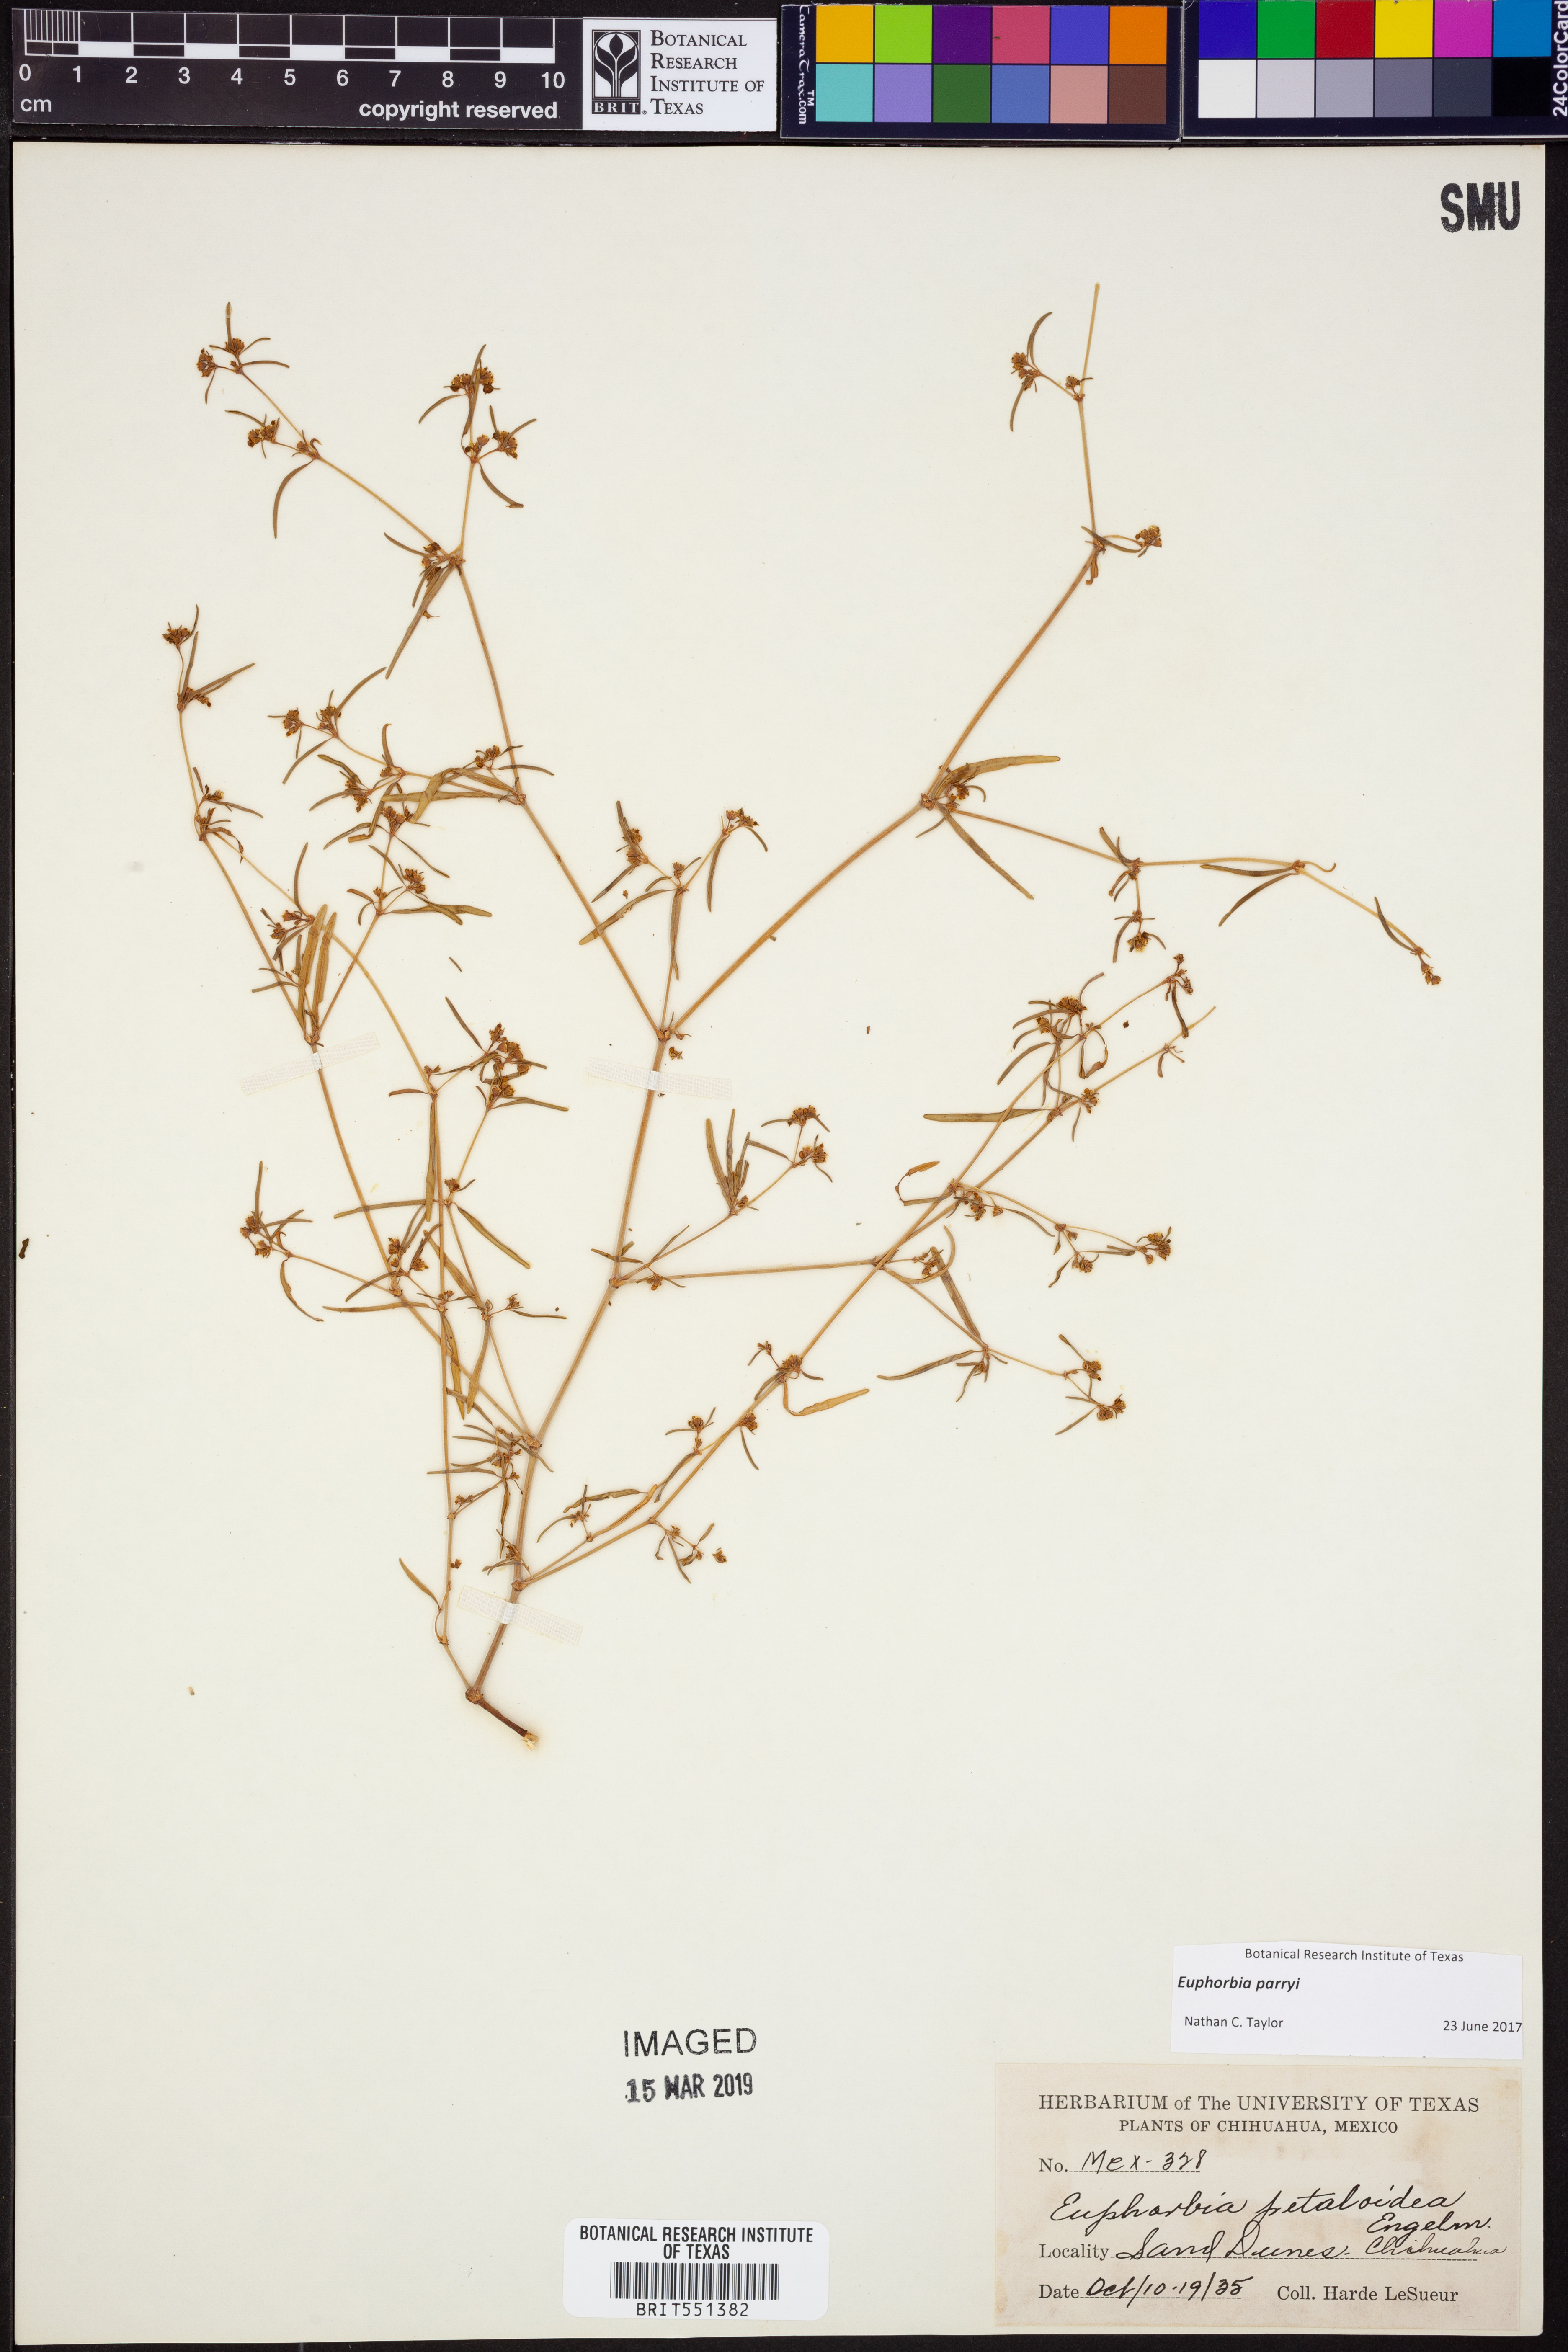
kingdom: Plantae
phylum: Tracheophyta
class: Magnoliopsida
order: Malpighiales
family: Euphorbiaceae
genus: Euphorbia
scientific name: Euphorbia parryi
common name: Dune spurge
